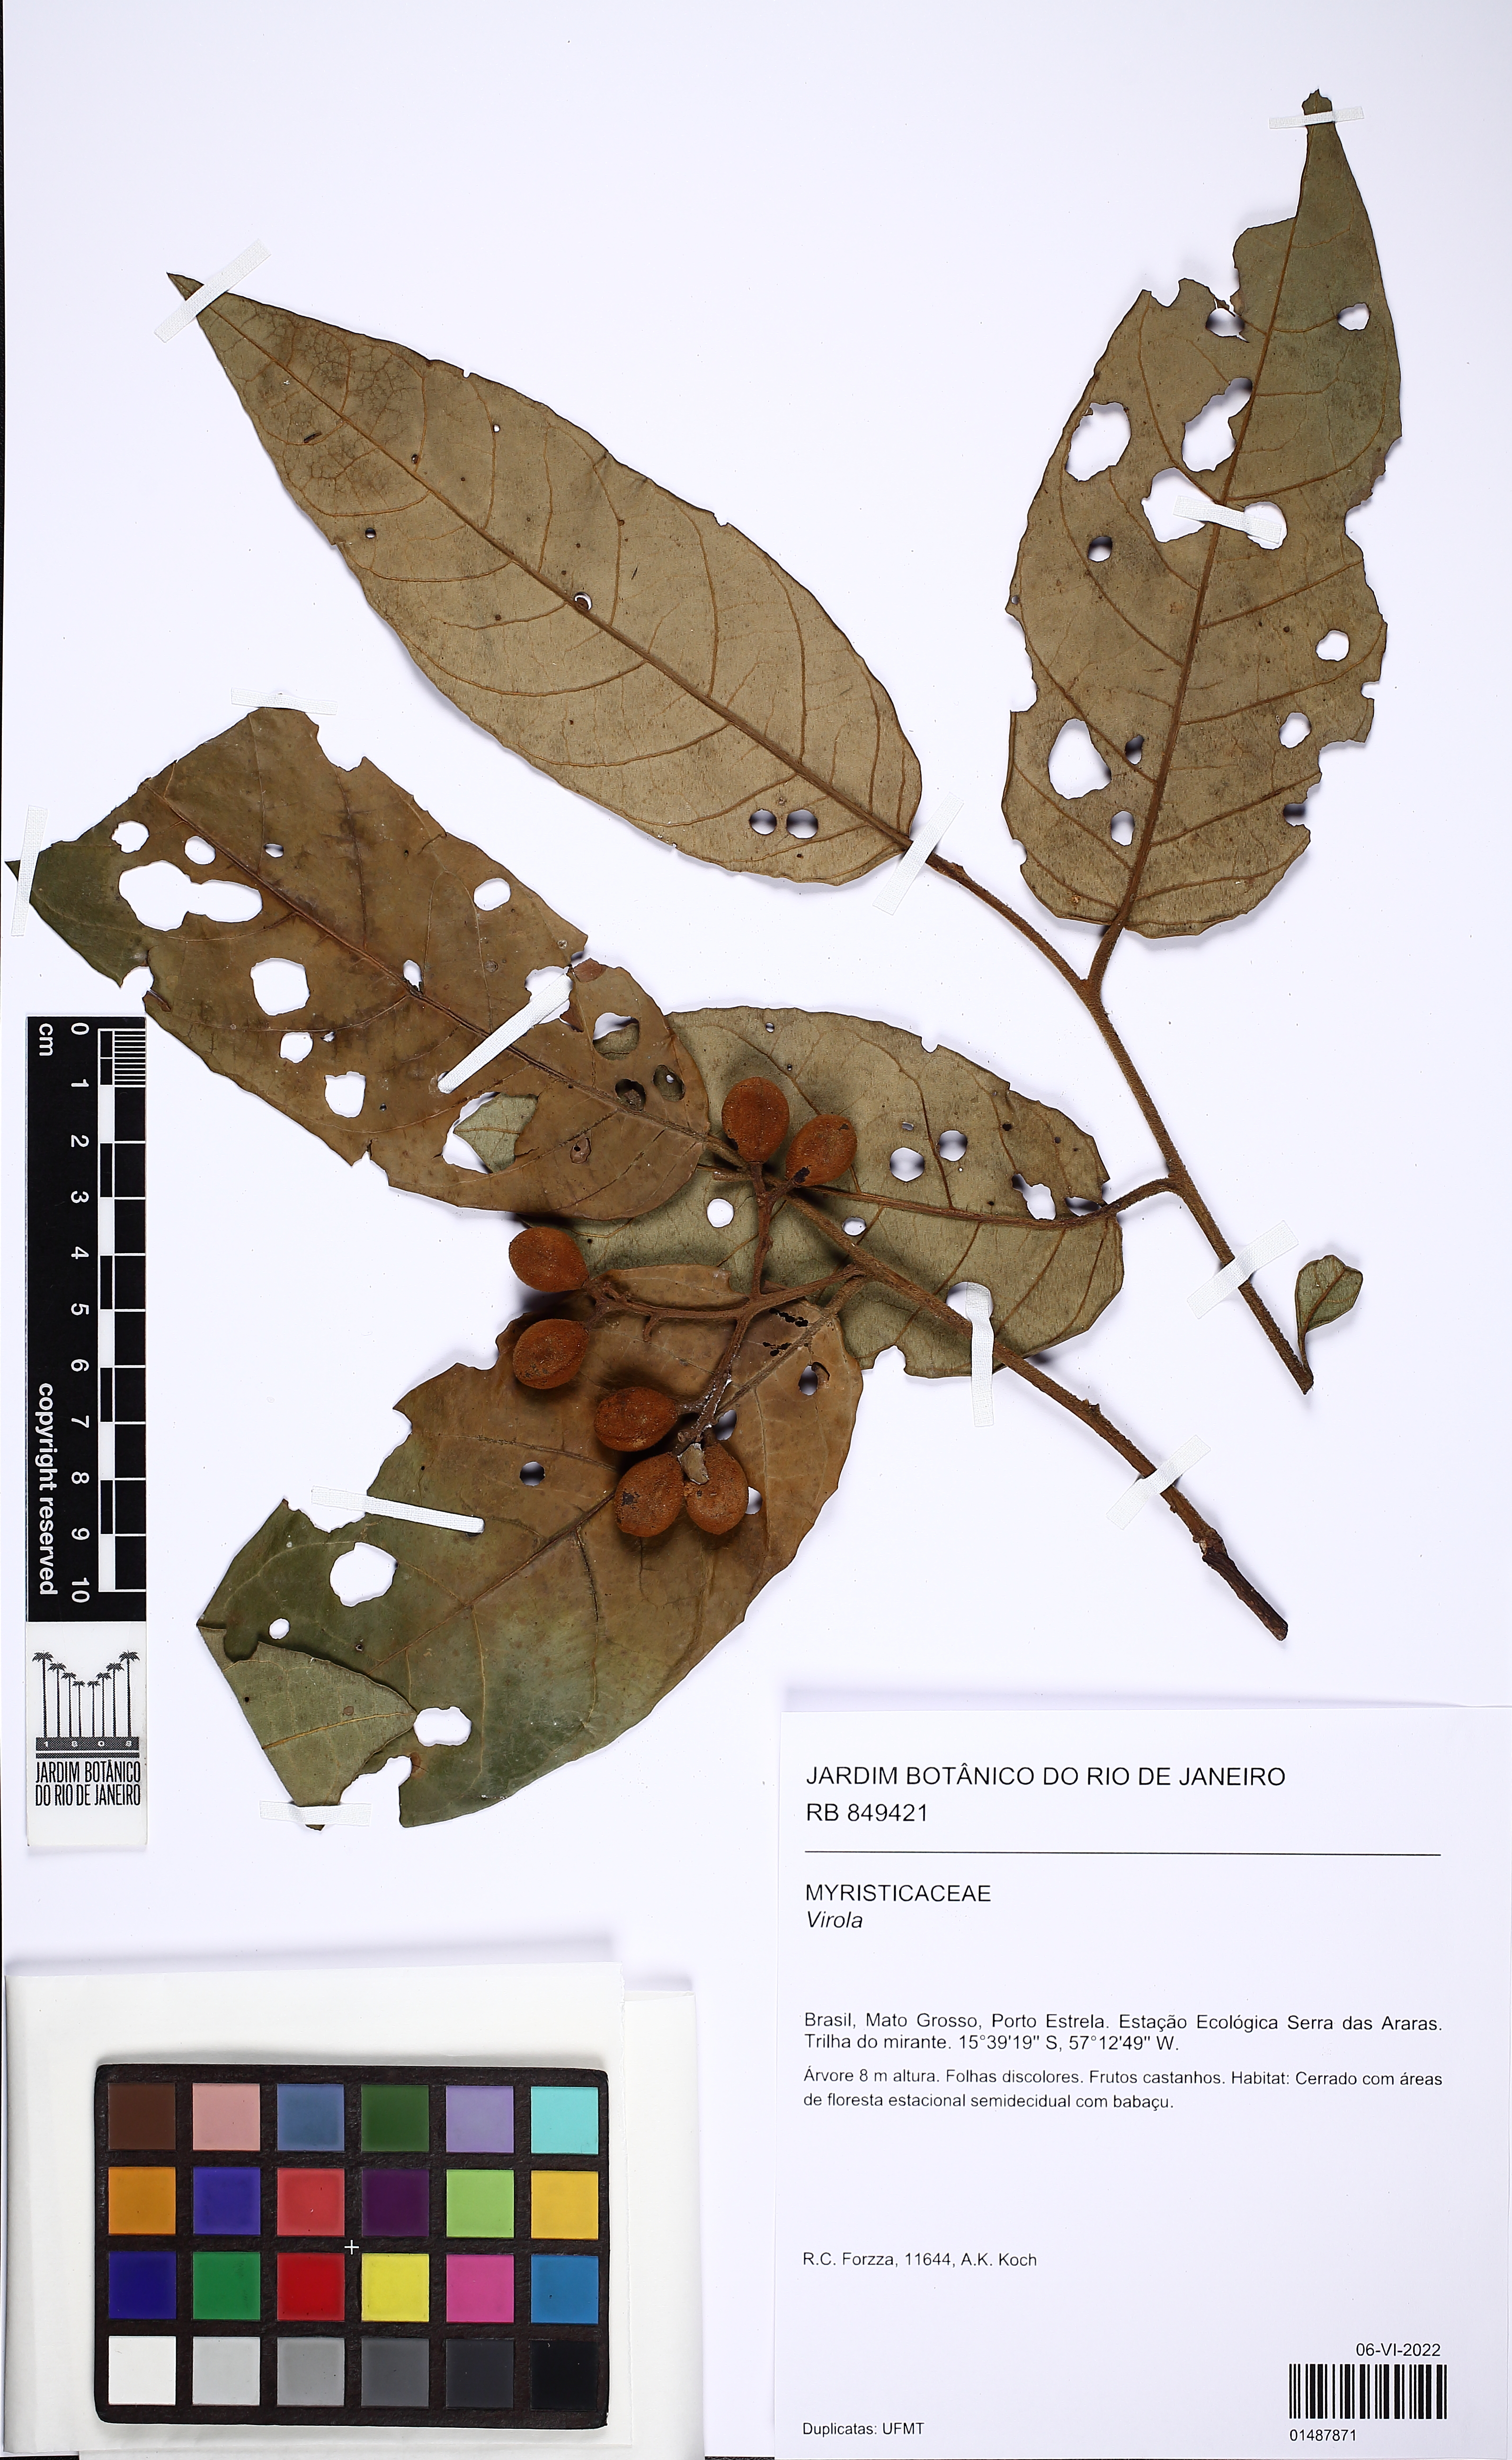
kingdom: Plantae
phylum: Tracheophyta
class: Magnoliopsida
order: Magnoliales
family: Myristicaceae
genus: Virola
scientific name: Virola
